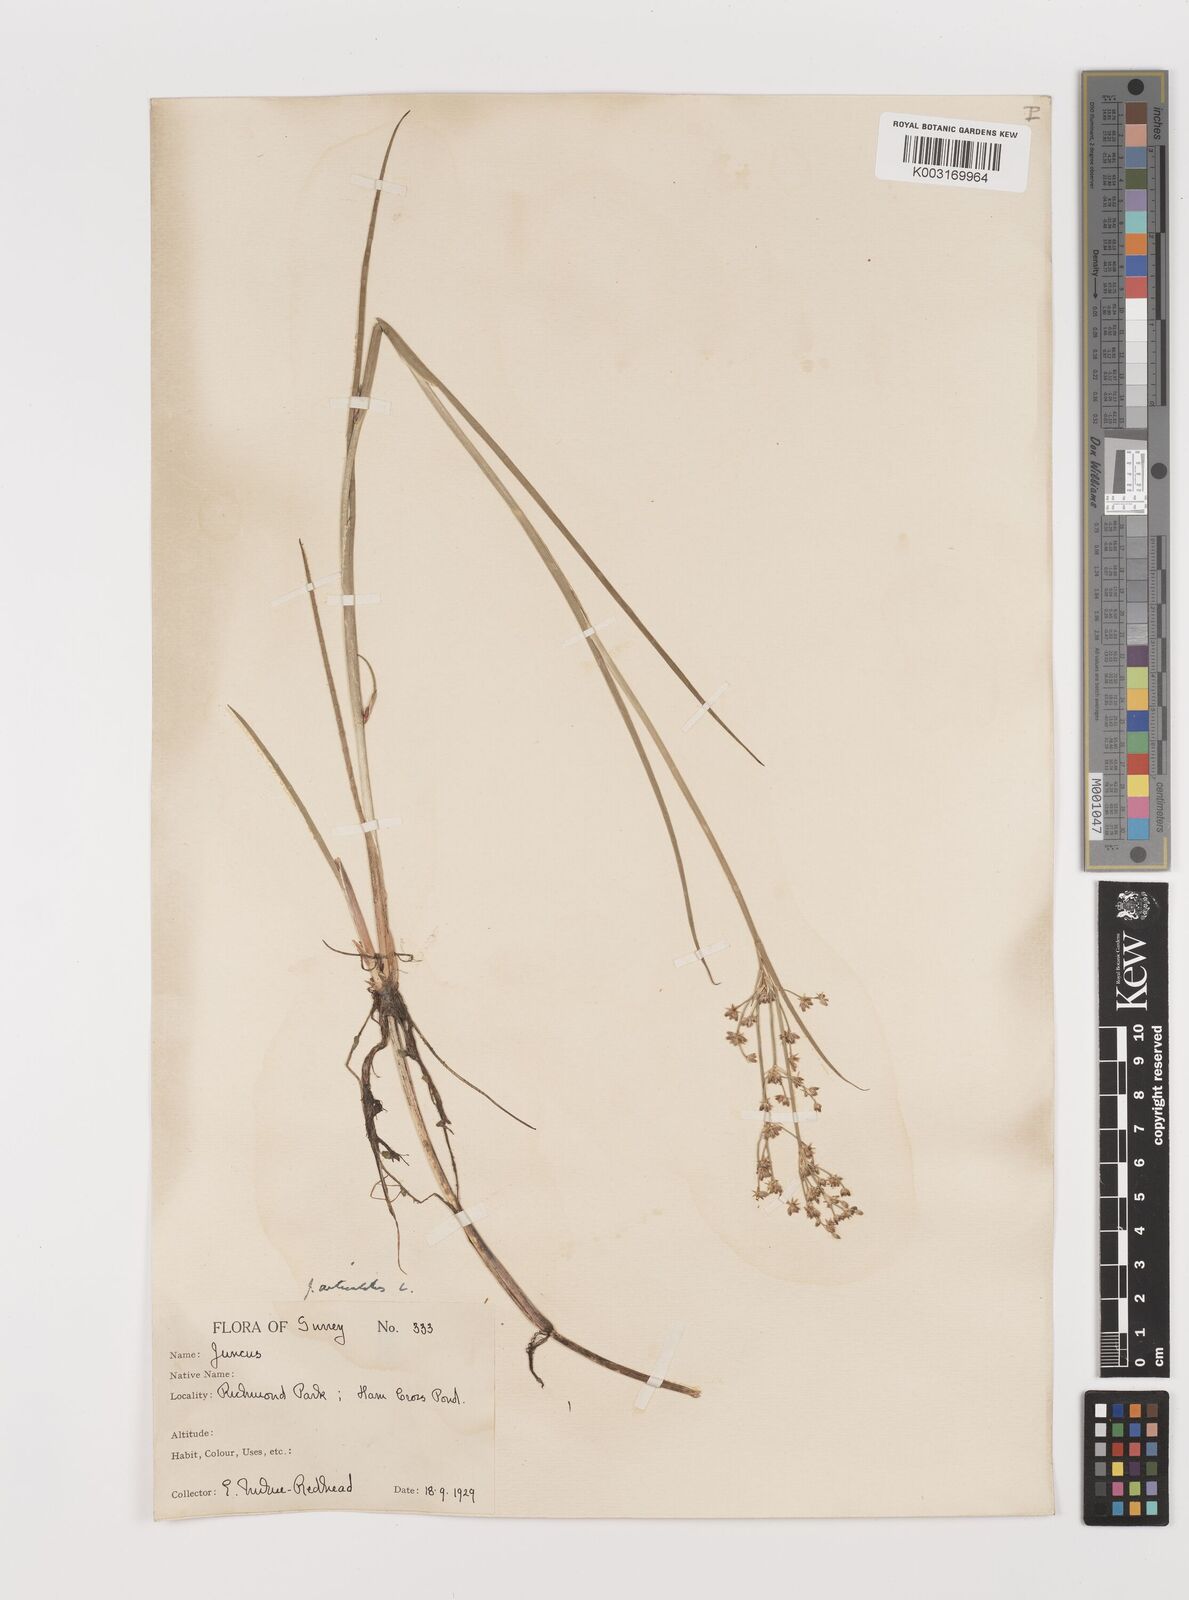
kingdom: Plantae
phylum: Tracheophyta
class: Liliopsida
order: Poales
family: Juncaceae
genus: Juncus
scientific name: Juncus articulatus
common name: Jointed rush
